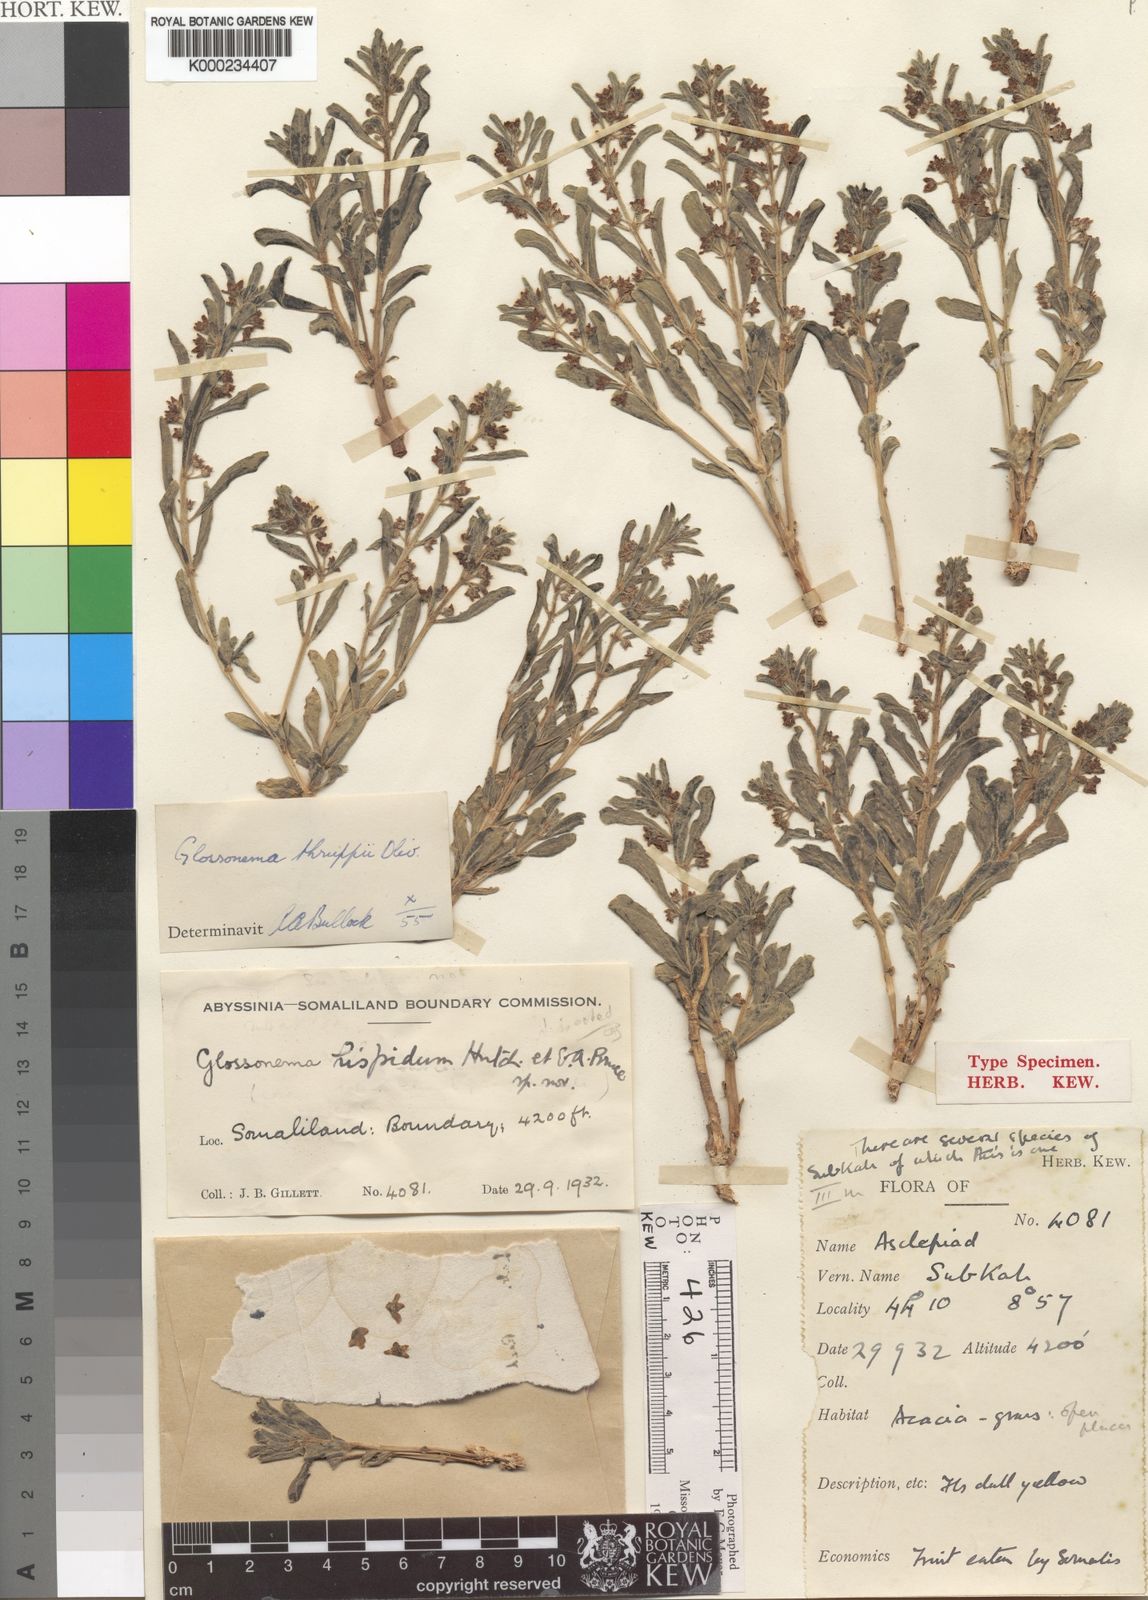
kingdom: Plantae
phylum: Tracheophyta
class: Magnoliopsida
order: Gentianales
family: Apocynaceae
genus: Cynanchum
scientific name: Cynanchum thruppii
